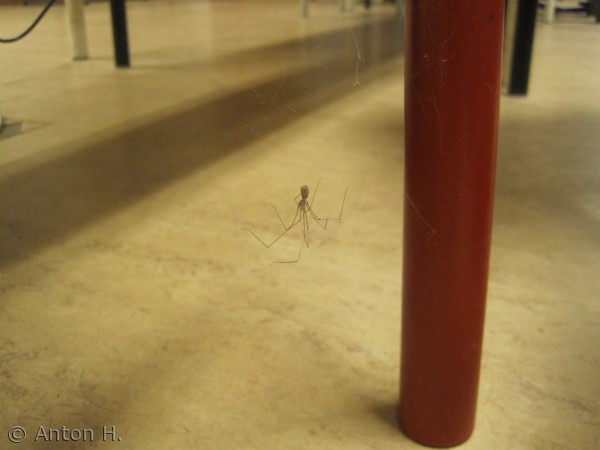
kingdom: Animalia
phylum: Arthropoda
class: Arachnida
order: Araneae
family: Pholcidae
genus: Pholcus
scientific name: Pholcus phalangioides
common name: Mejeredderkop
